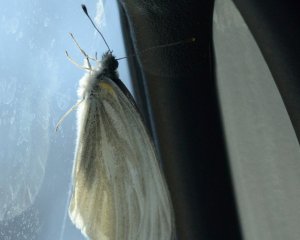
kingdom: Animalia
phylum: Arthropoda
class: Insecta
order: Lepidoptera
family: Pieridae
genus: Pieris
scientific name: Pieris virginiensis
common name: West Virginia White
